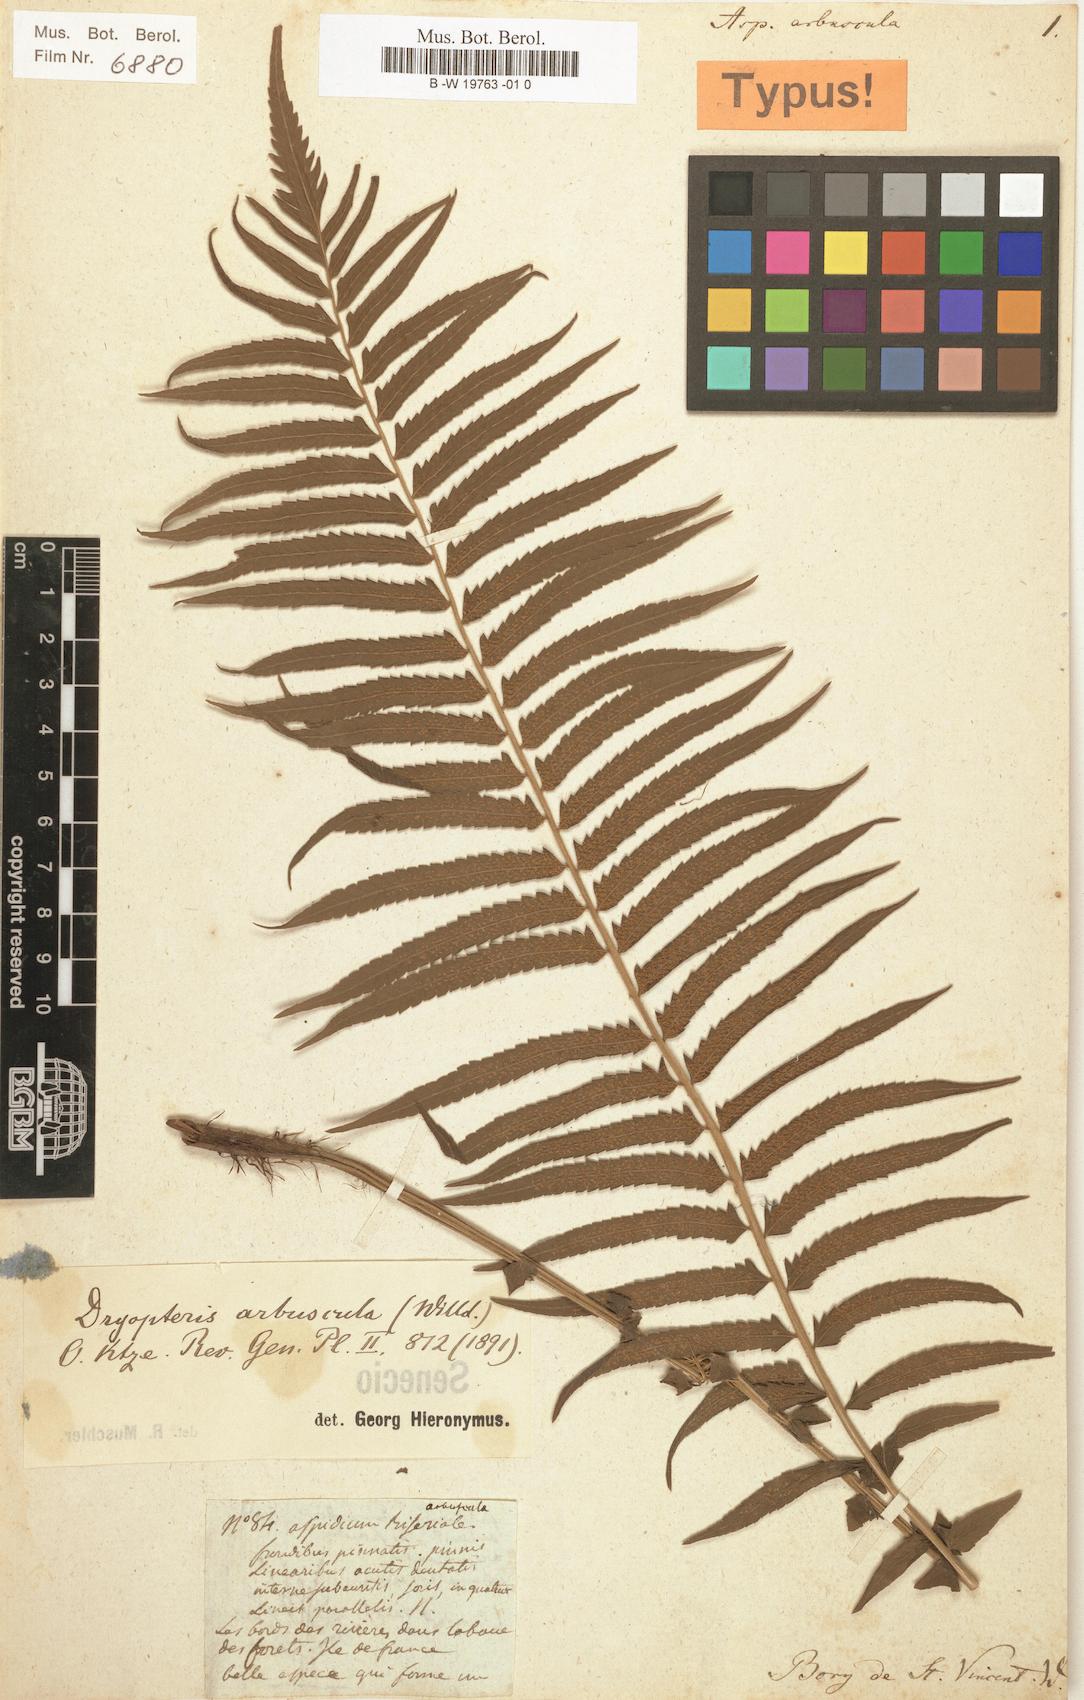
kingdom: Plantae
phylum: Tracheophyta
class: Polypodiopsida
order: Polypodiales
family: Thelypteridaceae
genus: Sphaerostephanos
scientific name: Sphaerostephanos arbusculus
